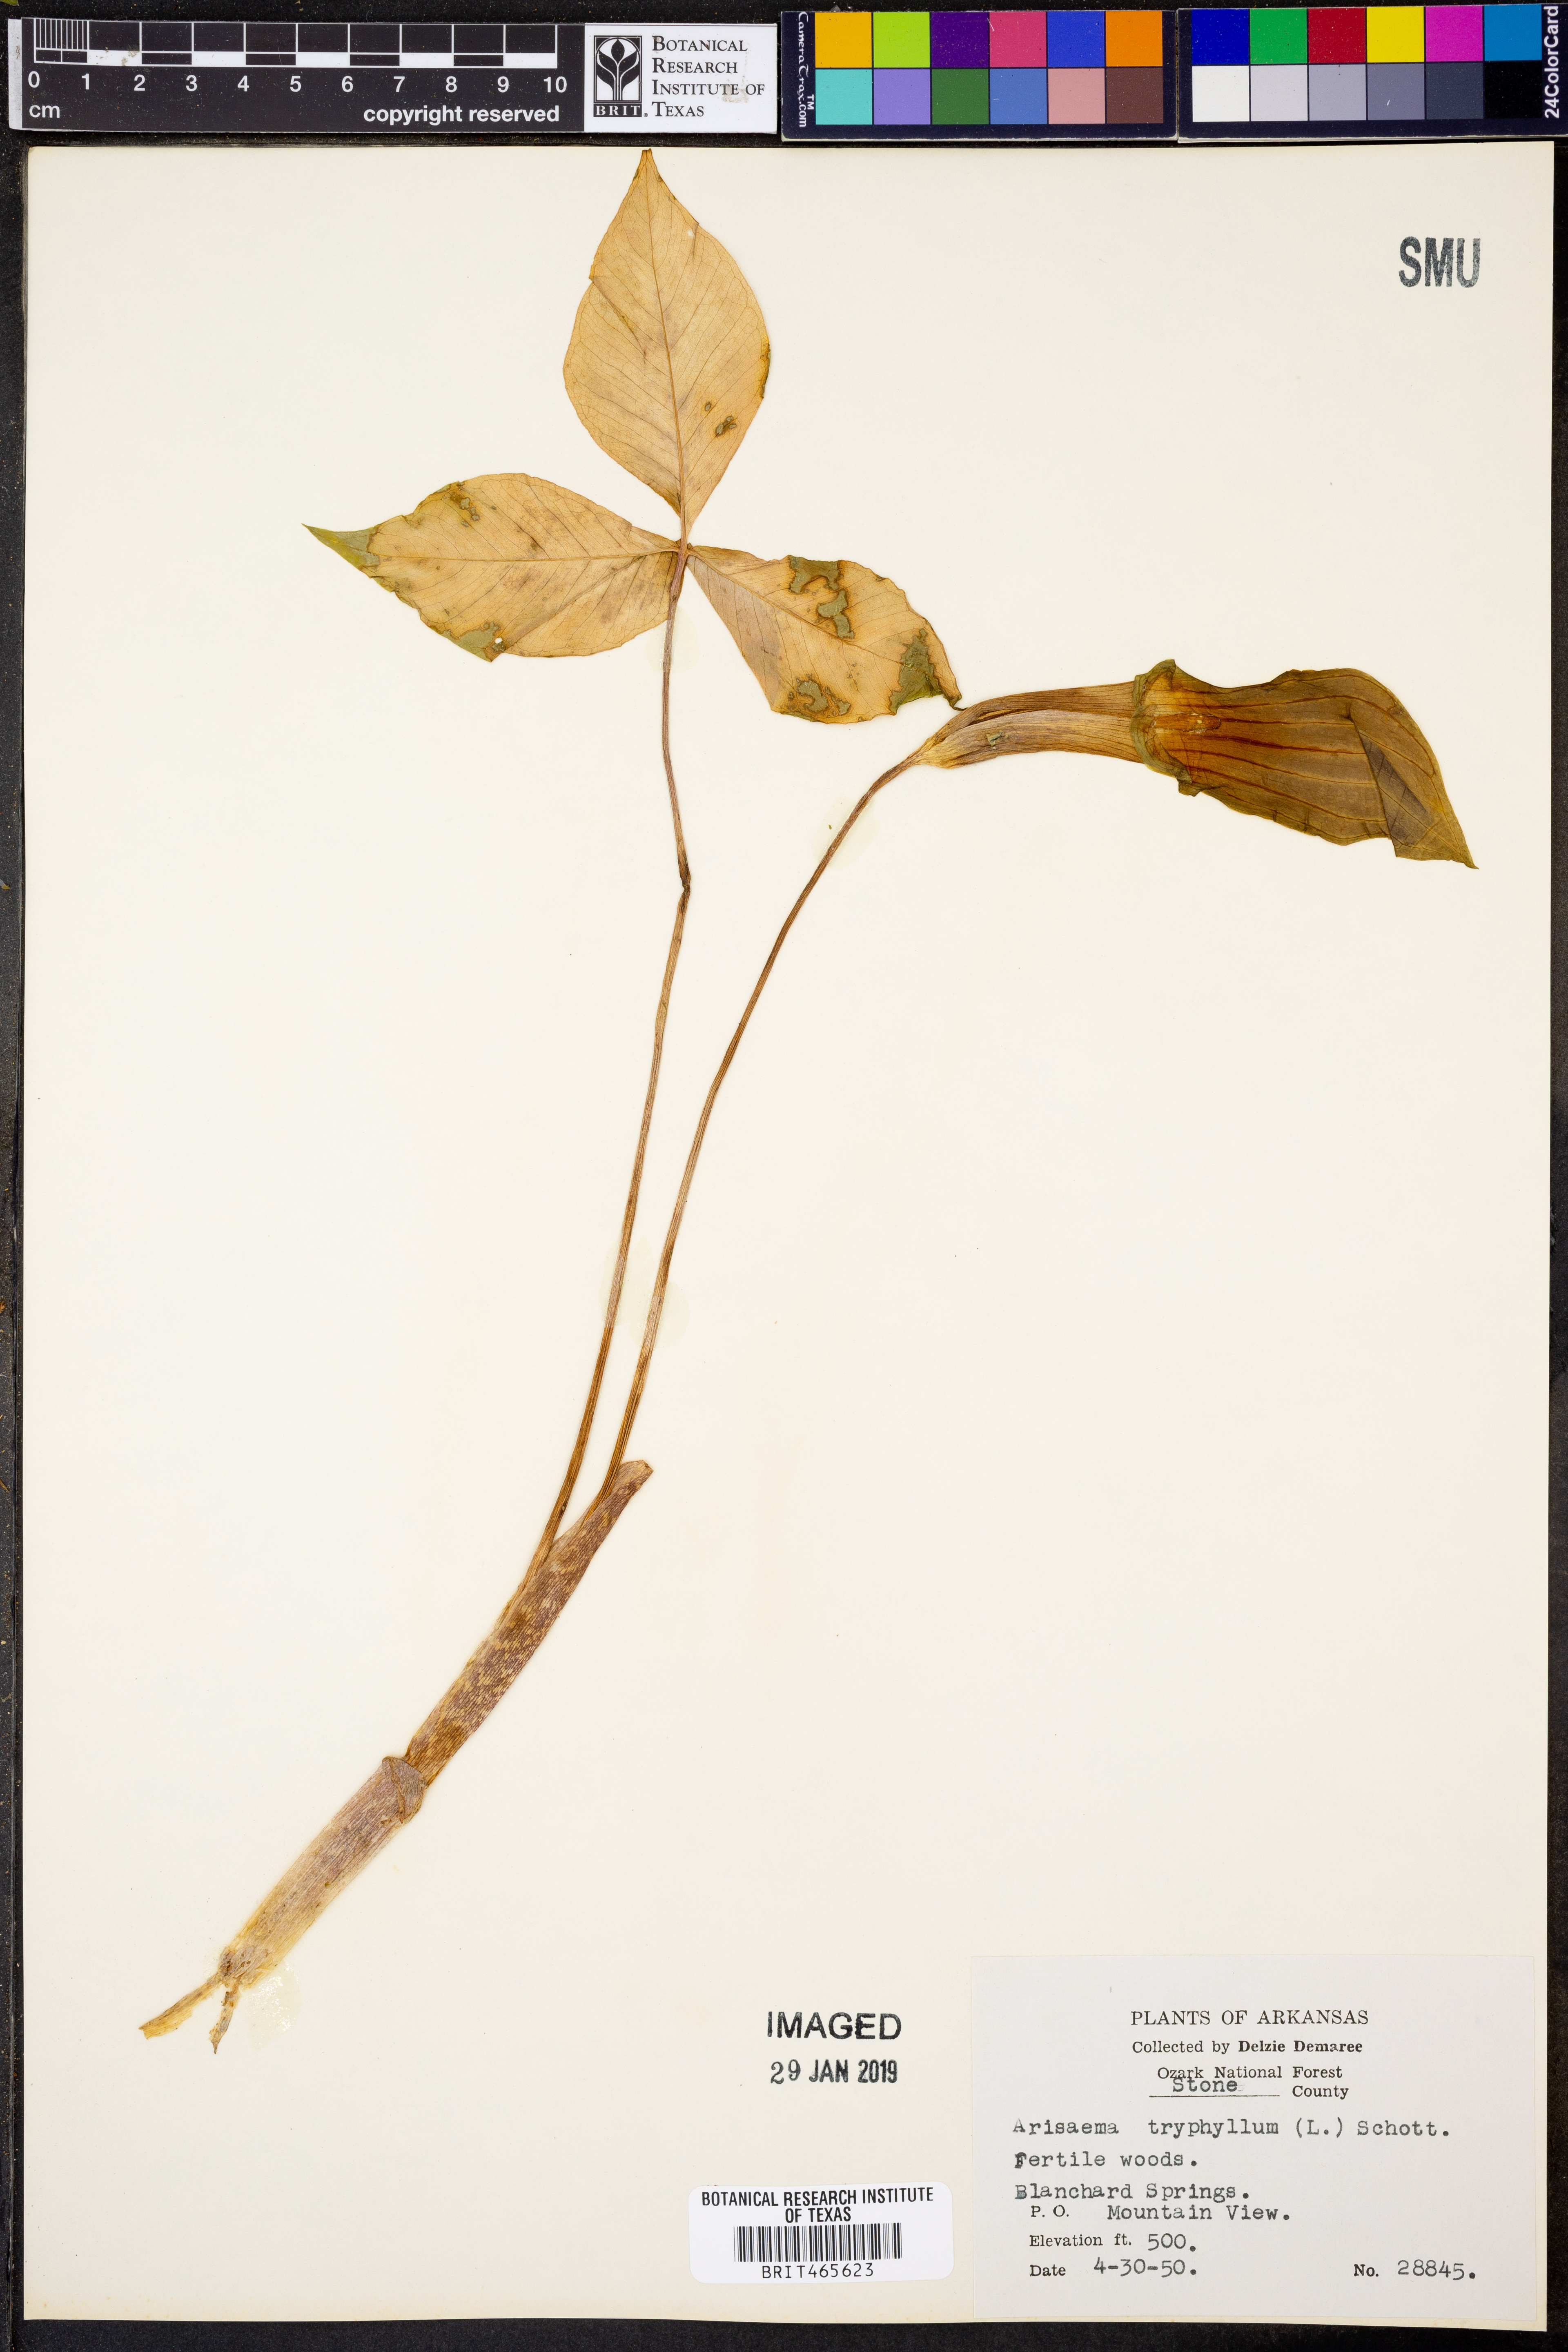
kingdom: Plantae
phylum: Tracheophyta
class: Liliopsida
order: Alismatales
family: Araceae
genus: Arisaema
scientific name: Arisaema triphyllum
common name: Jack-in-the-pulpit
